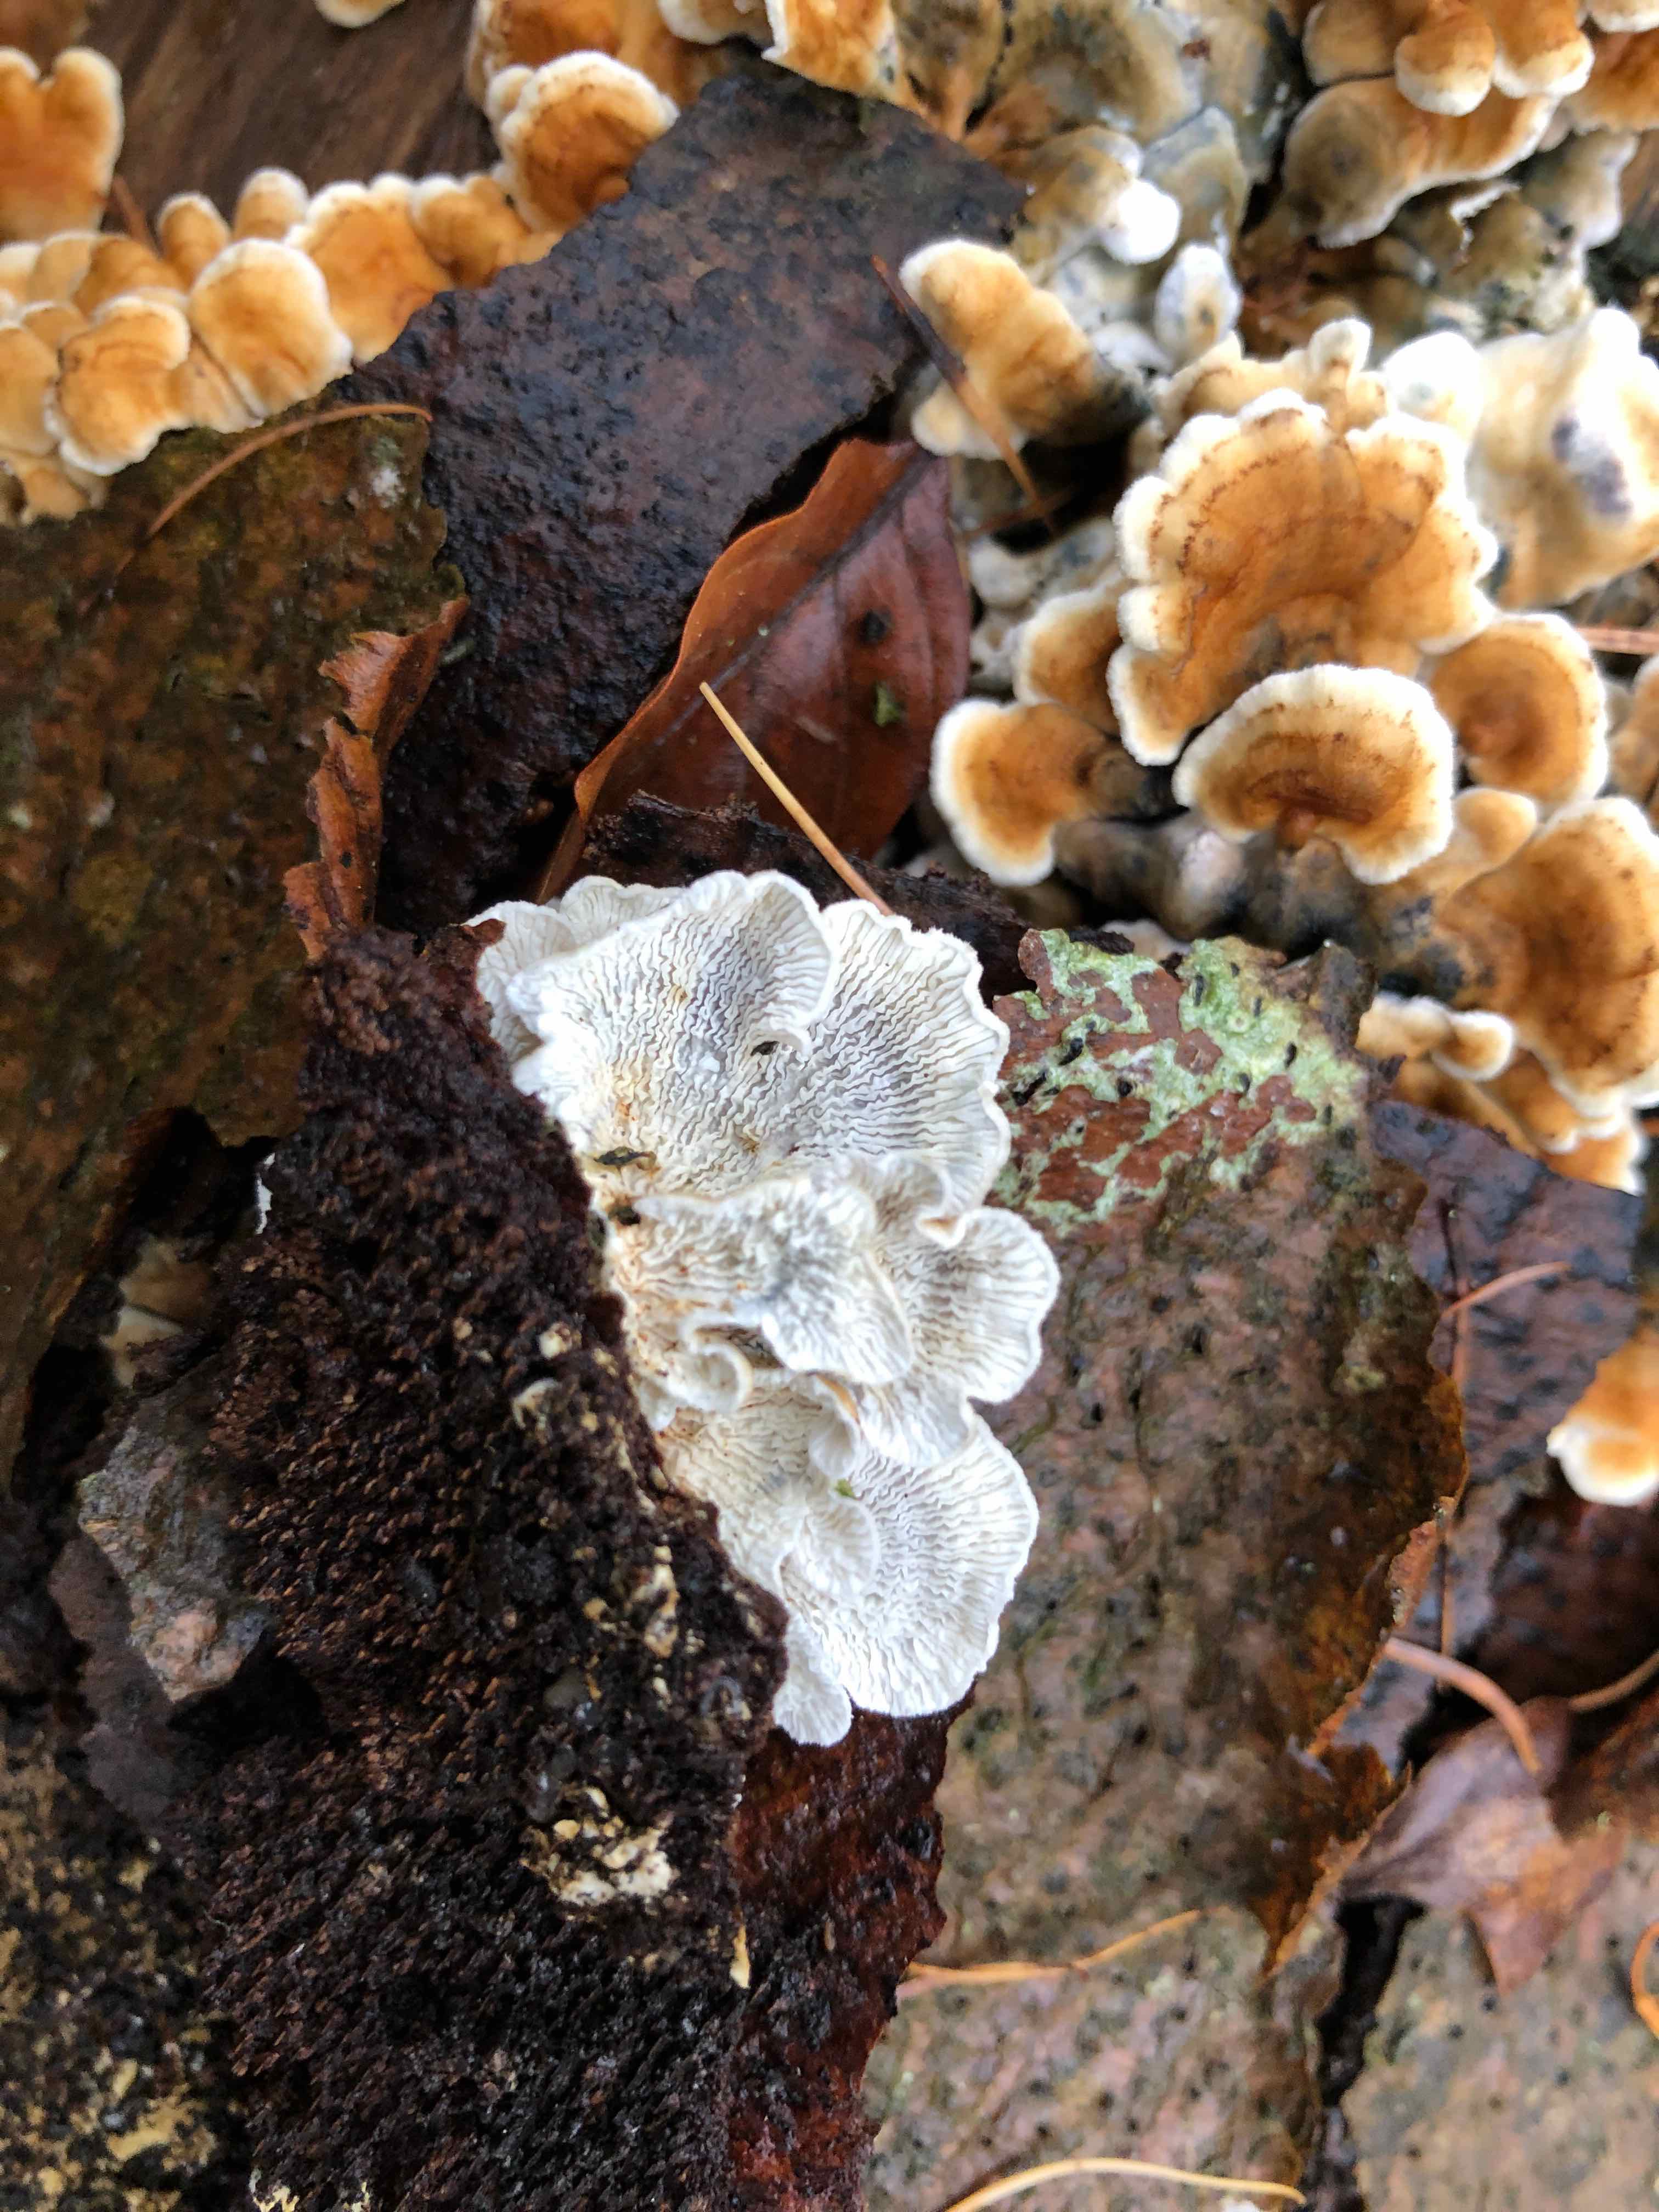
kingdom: Fungi
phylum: Basidiomycota
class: Agaricomycetes
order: Amylocorticiales
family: Amylocorticiaceae
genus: Plicaturopsis
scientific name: Plicaturopsis crispa
